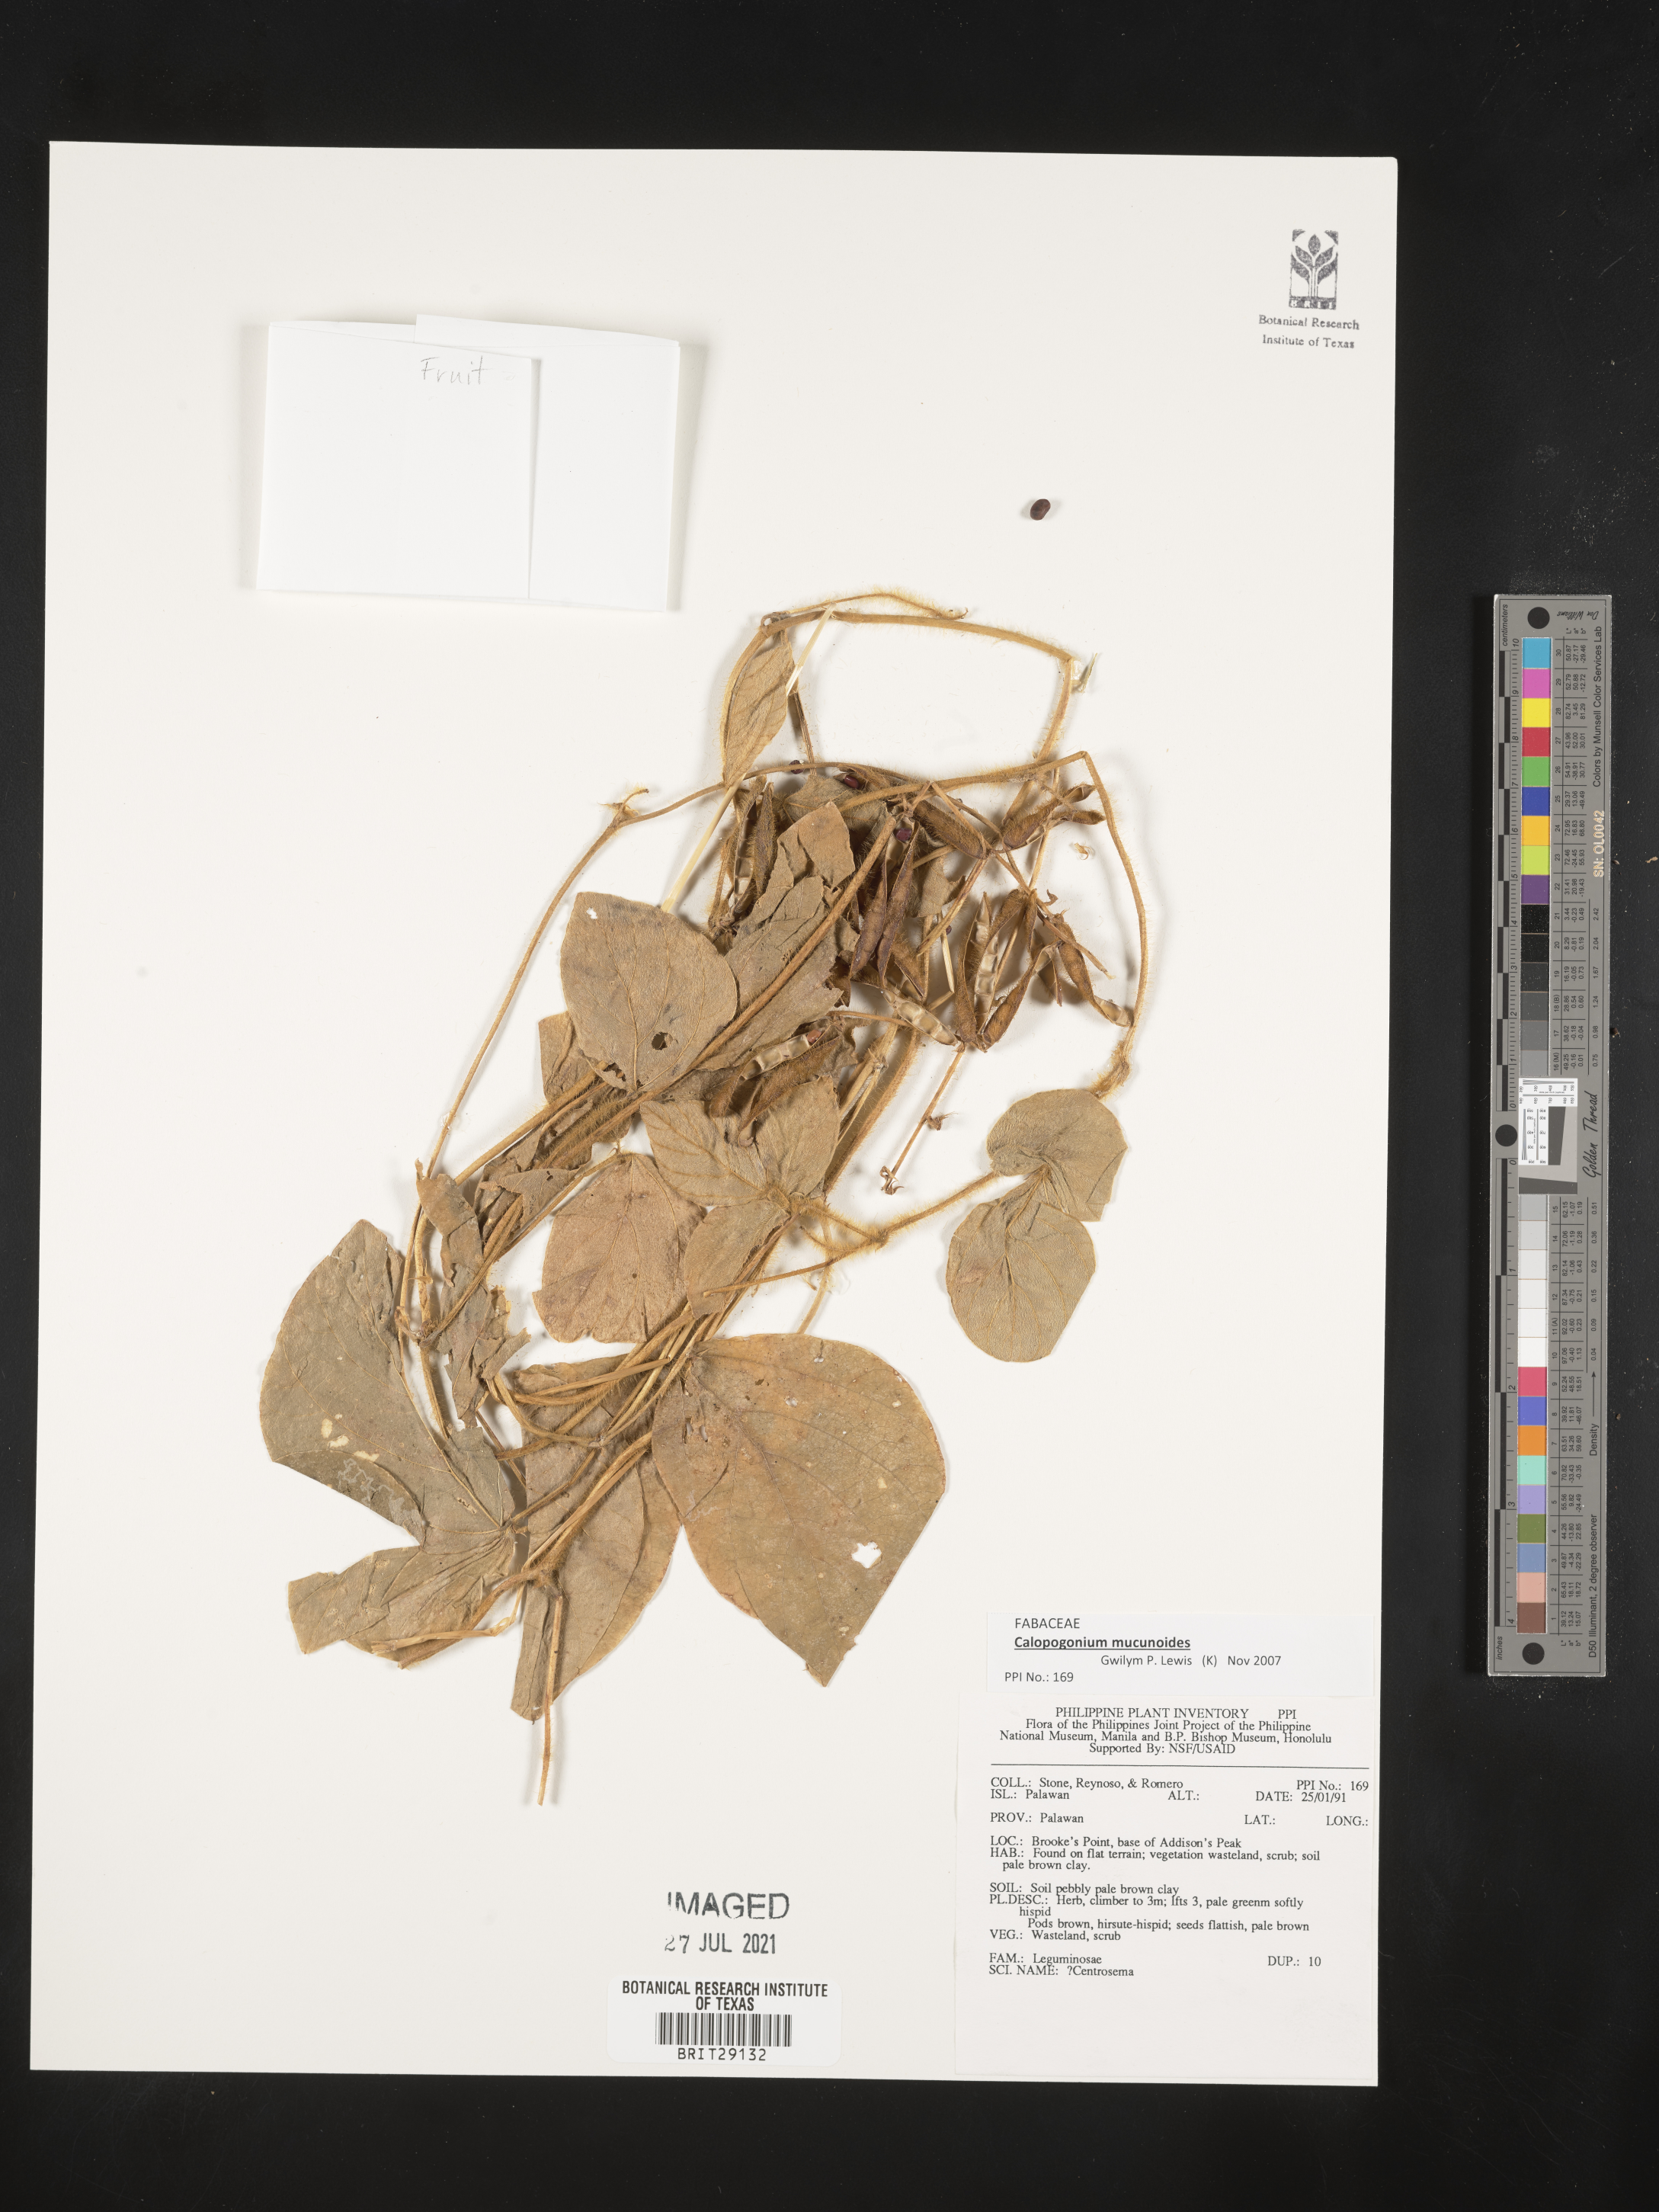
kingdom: Plantae
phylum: Tracheophyta
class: Magnoliopsida
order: Fabales
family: Fabaceae
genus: Calopogonium
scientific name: Calopogonium mucunoides
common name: Calopo
